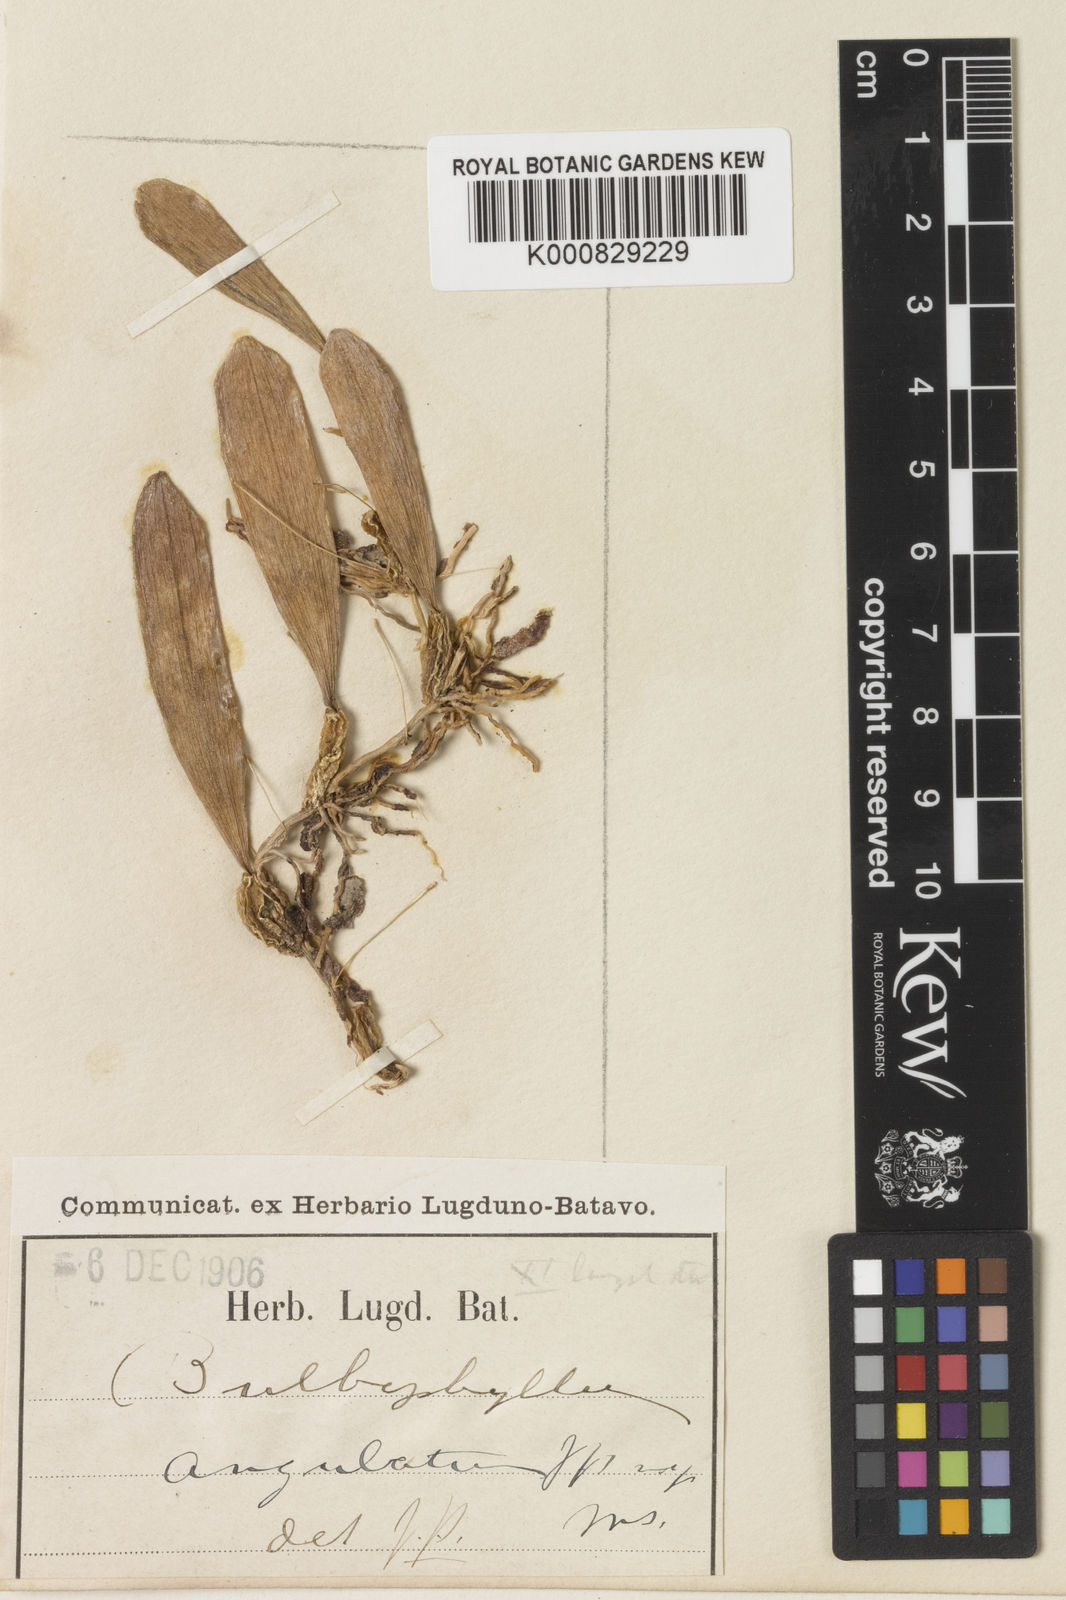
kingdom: Plantae
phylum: Tracheophyta
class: Liliopsida
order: Asparagales
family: Orchidaceae
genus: Bulbophyllum
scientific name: Bulbophyllum tenuifolium
